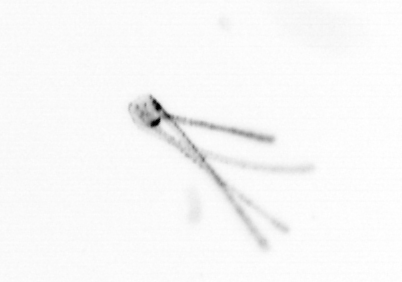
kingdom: Chromista
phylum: Ochrophyta
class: Bacillariophyceae
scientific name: Bacillariophyceae
